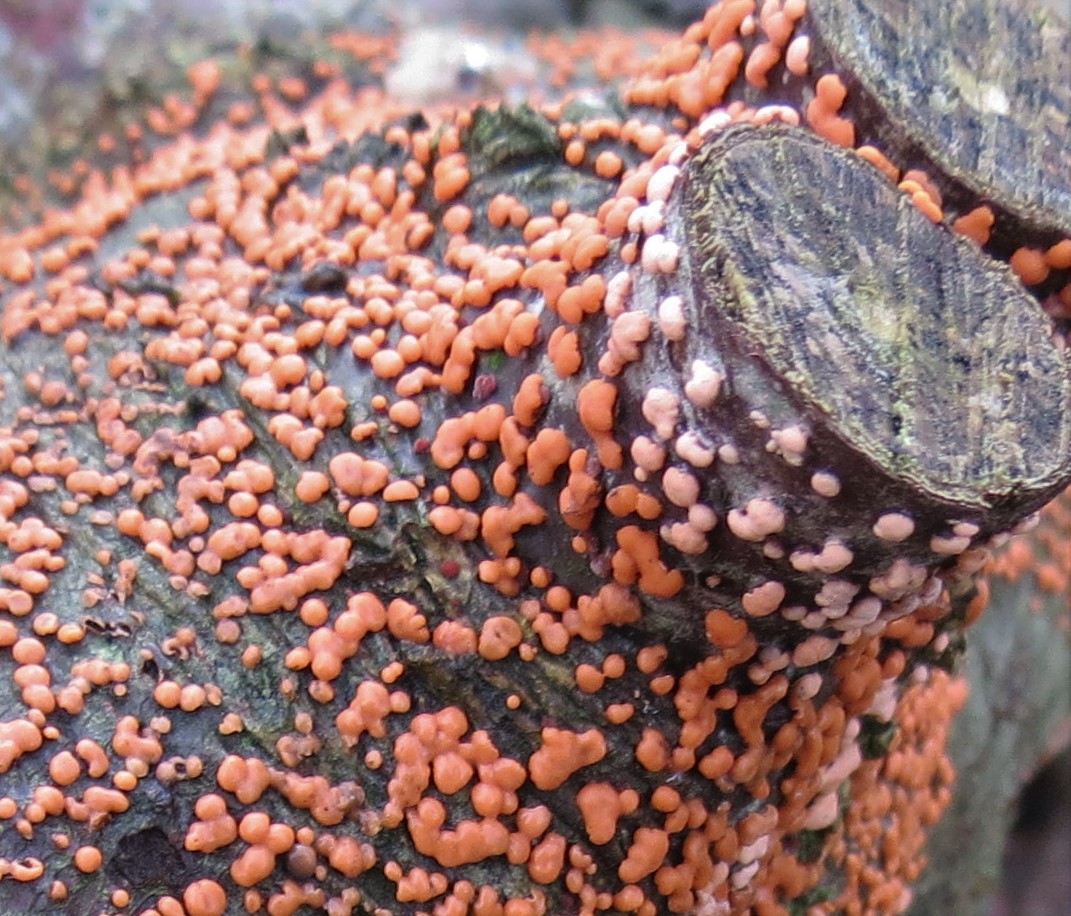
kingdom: Fungi
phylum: Ascomycota
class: Sordariomycetes
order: Hypocreales
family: Nectriaceae
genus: Nectria
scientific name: Nectria cinnabarina
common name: almindelig cinnobersvamp
